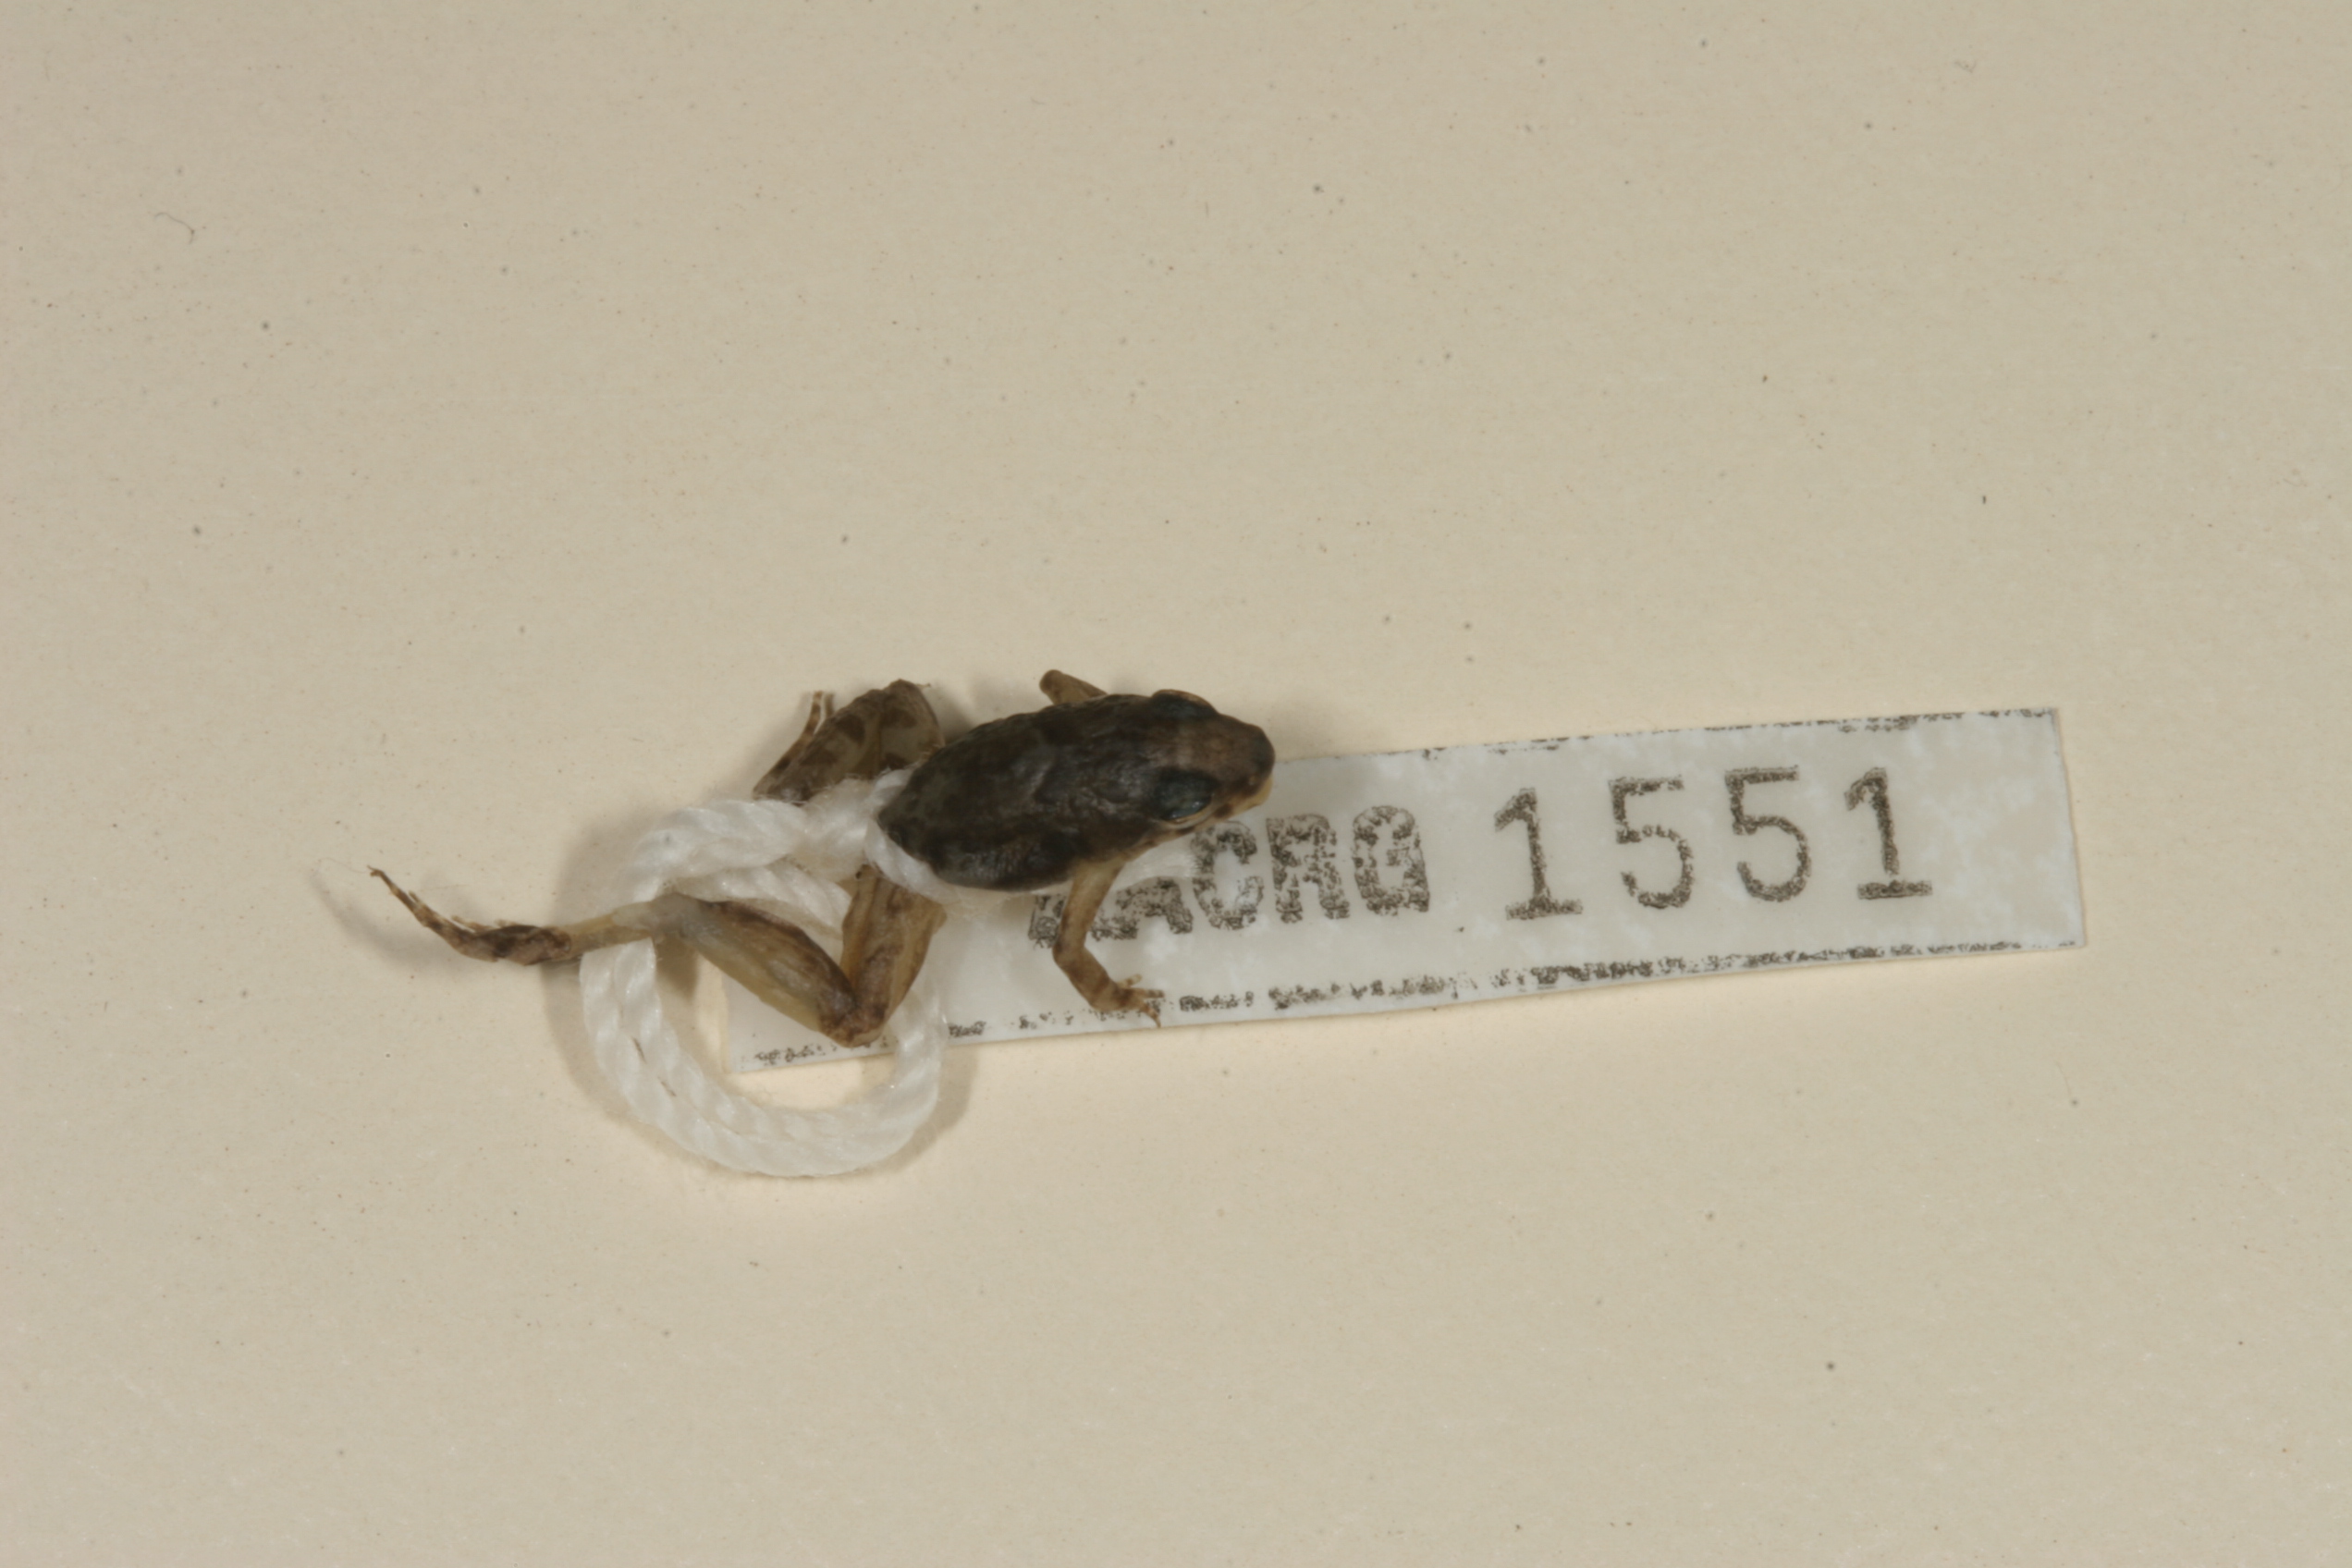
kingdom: Animalia
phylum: Chordata
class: Amphibia
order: Anura
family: Phrynobatrachidae
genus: Phrynobatrachus
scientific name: Phrynobatrachus mababiensis
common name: Dwarf puddle frog
